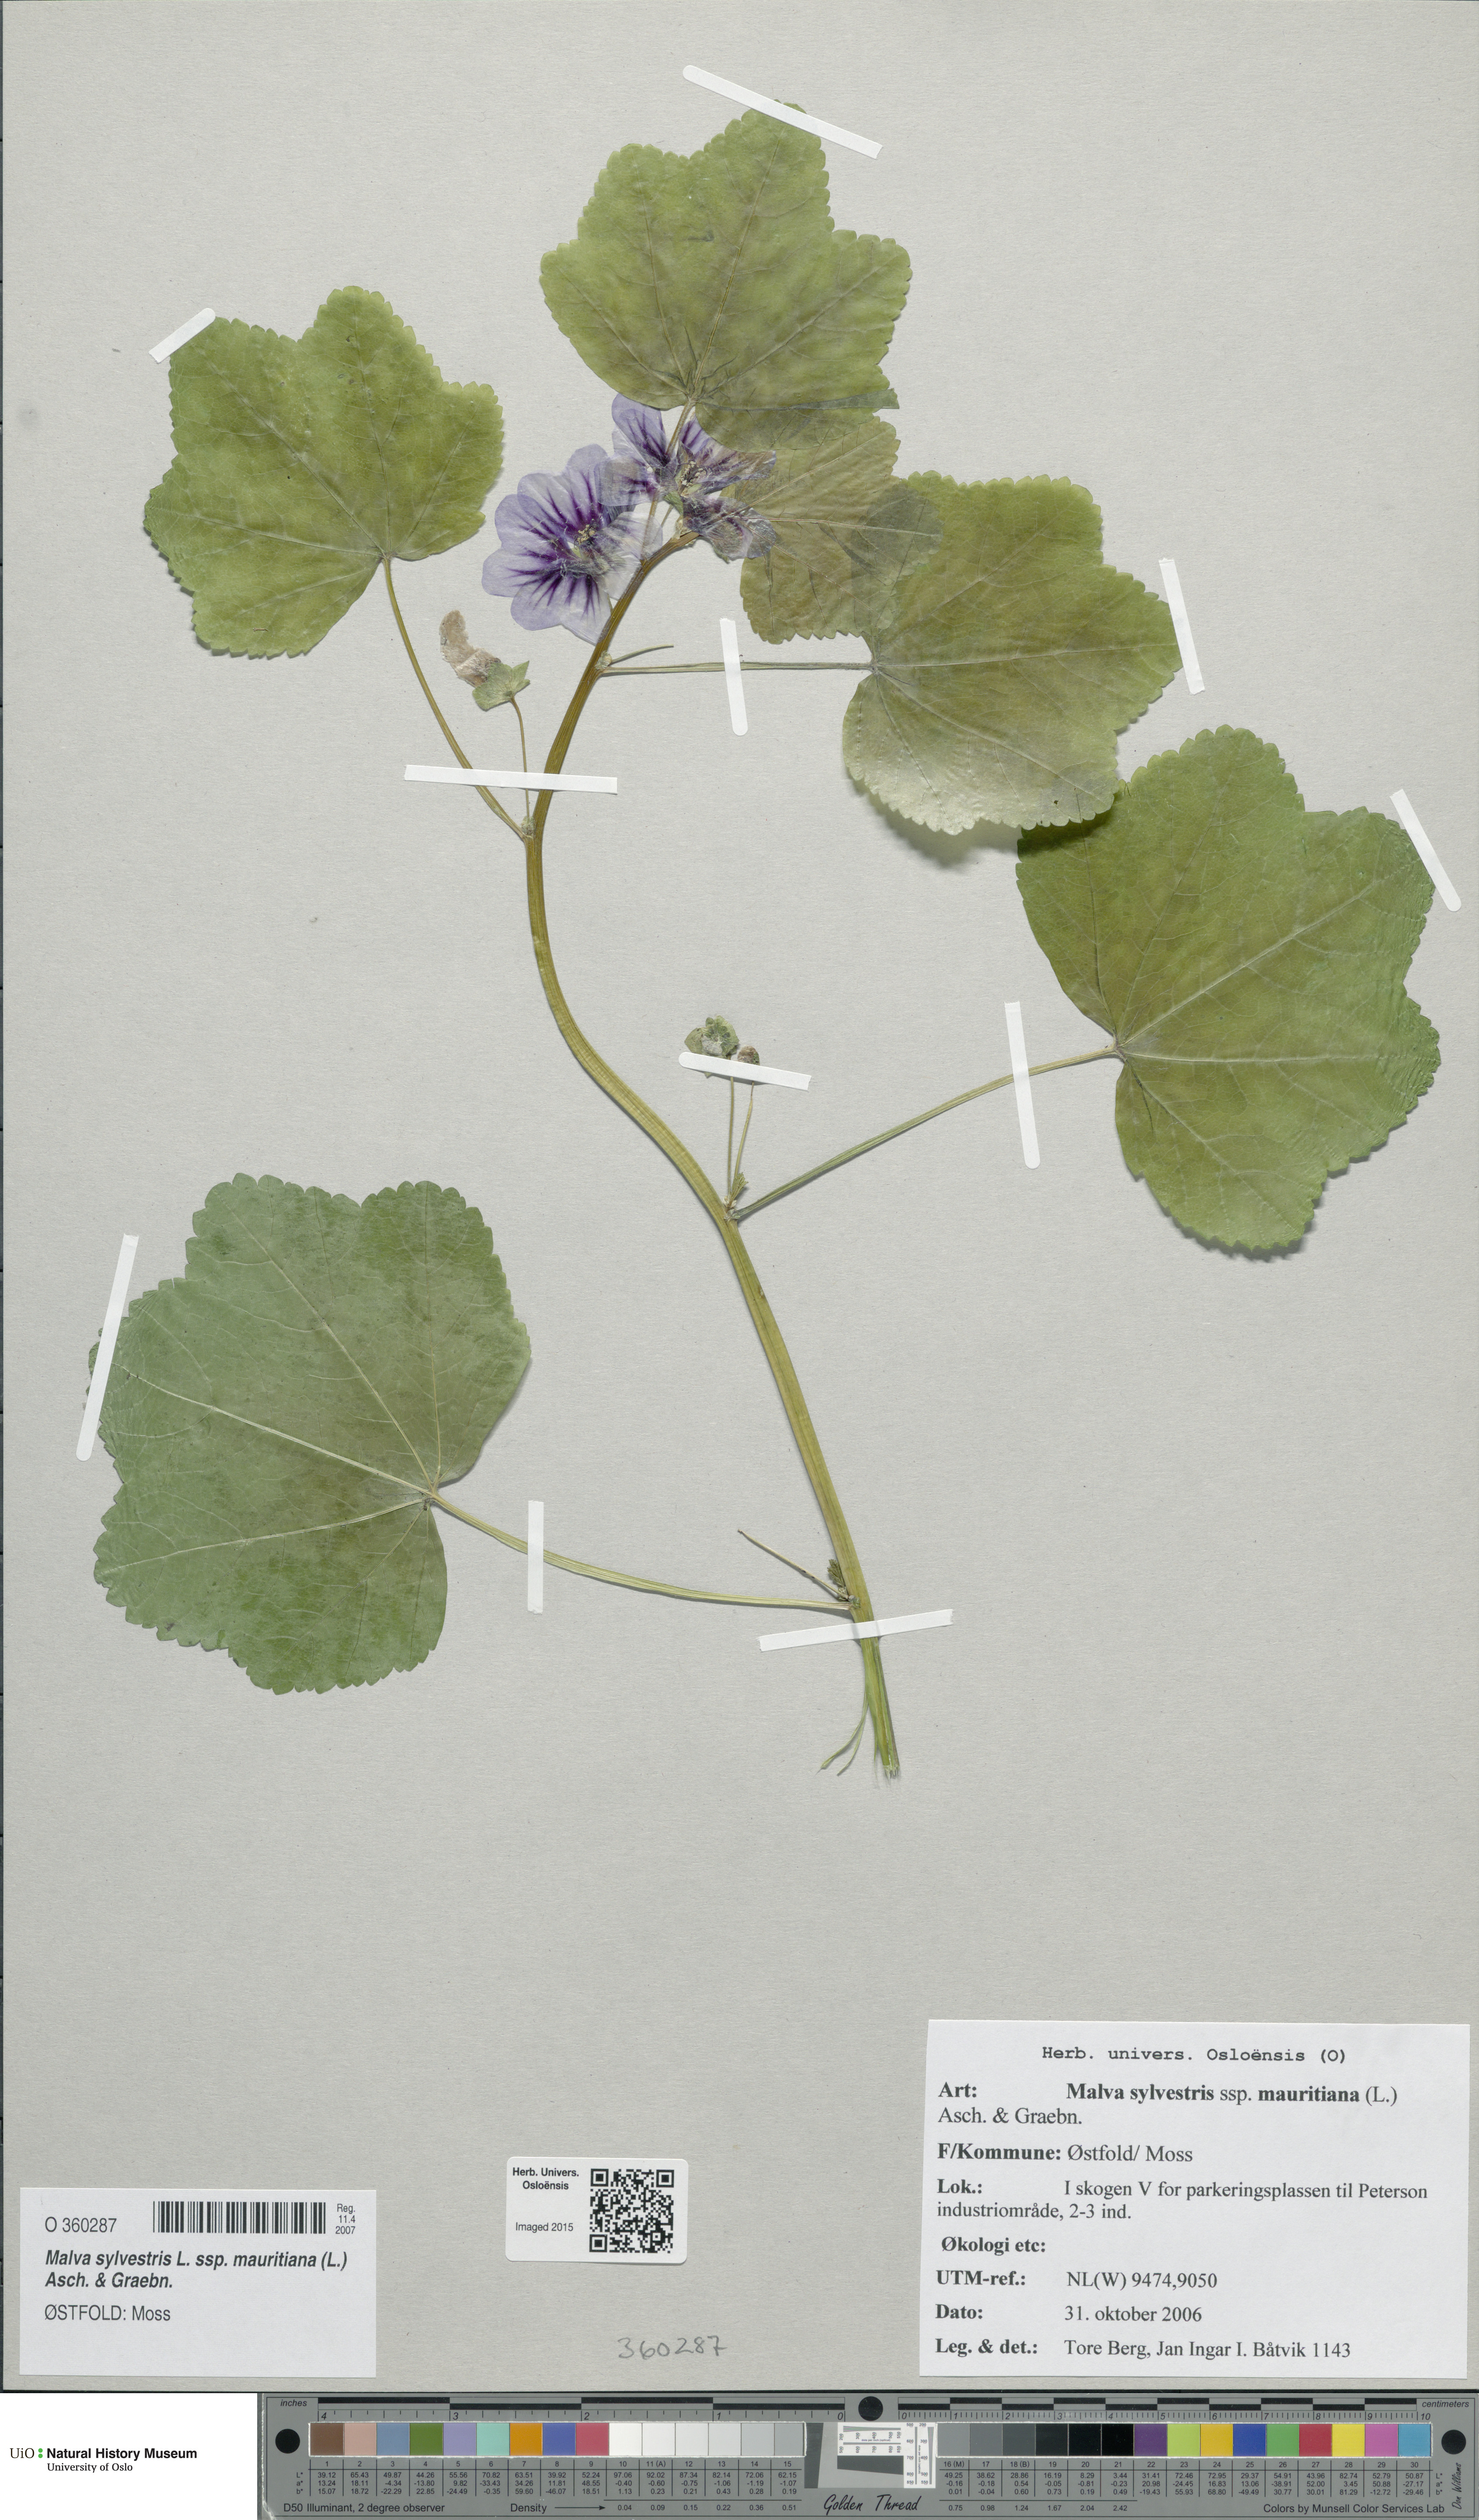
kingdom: Plantae
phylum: Tracheophyta
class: Magnoliopsida
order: Malvales
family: Malvaceae
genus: Malva
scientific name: Malva sylvestris
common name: Common mallow
